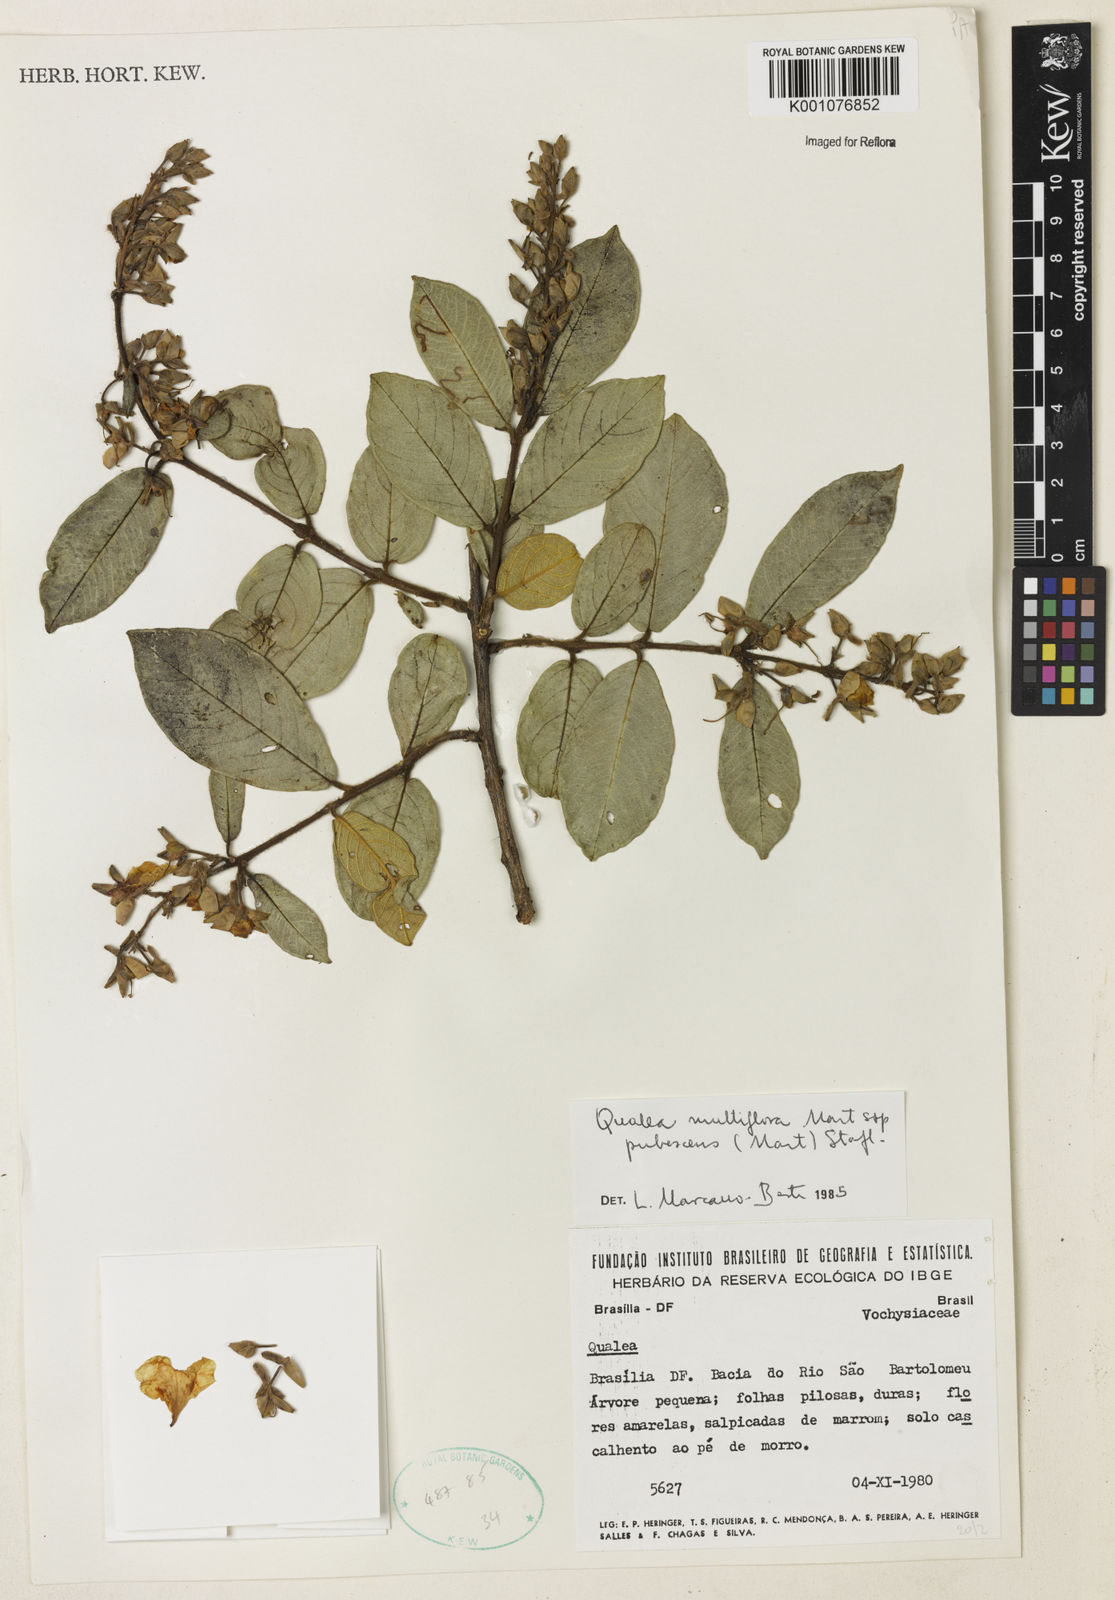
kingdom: Plantae
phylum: Tracheophyta
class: Magnoliopsida
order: Myrtales
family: Vochysiaceae
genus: Qualea
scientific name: Qualea multiflora
